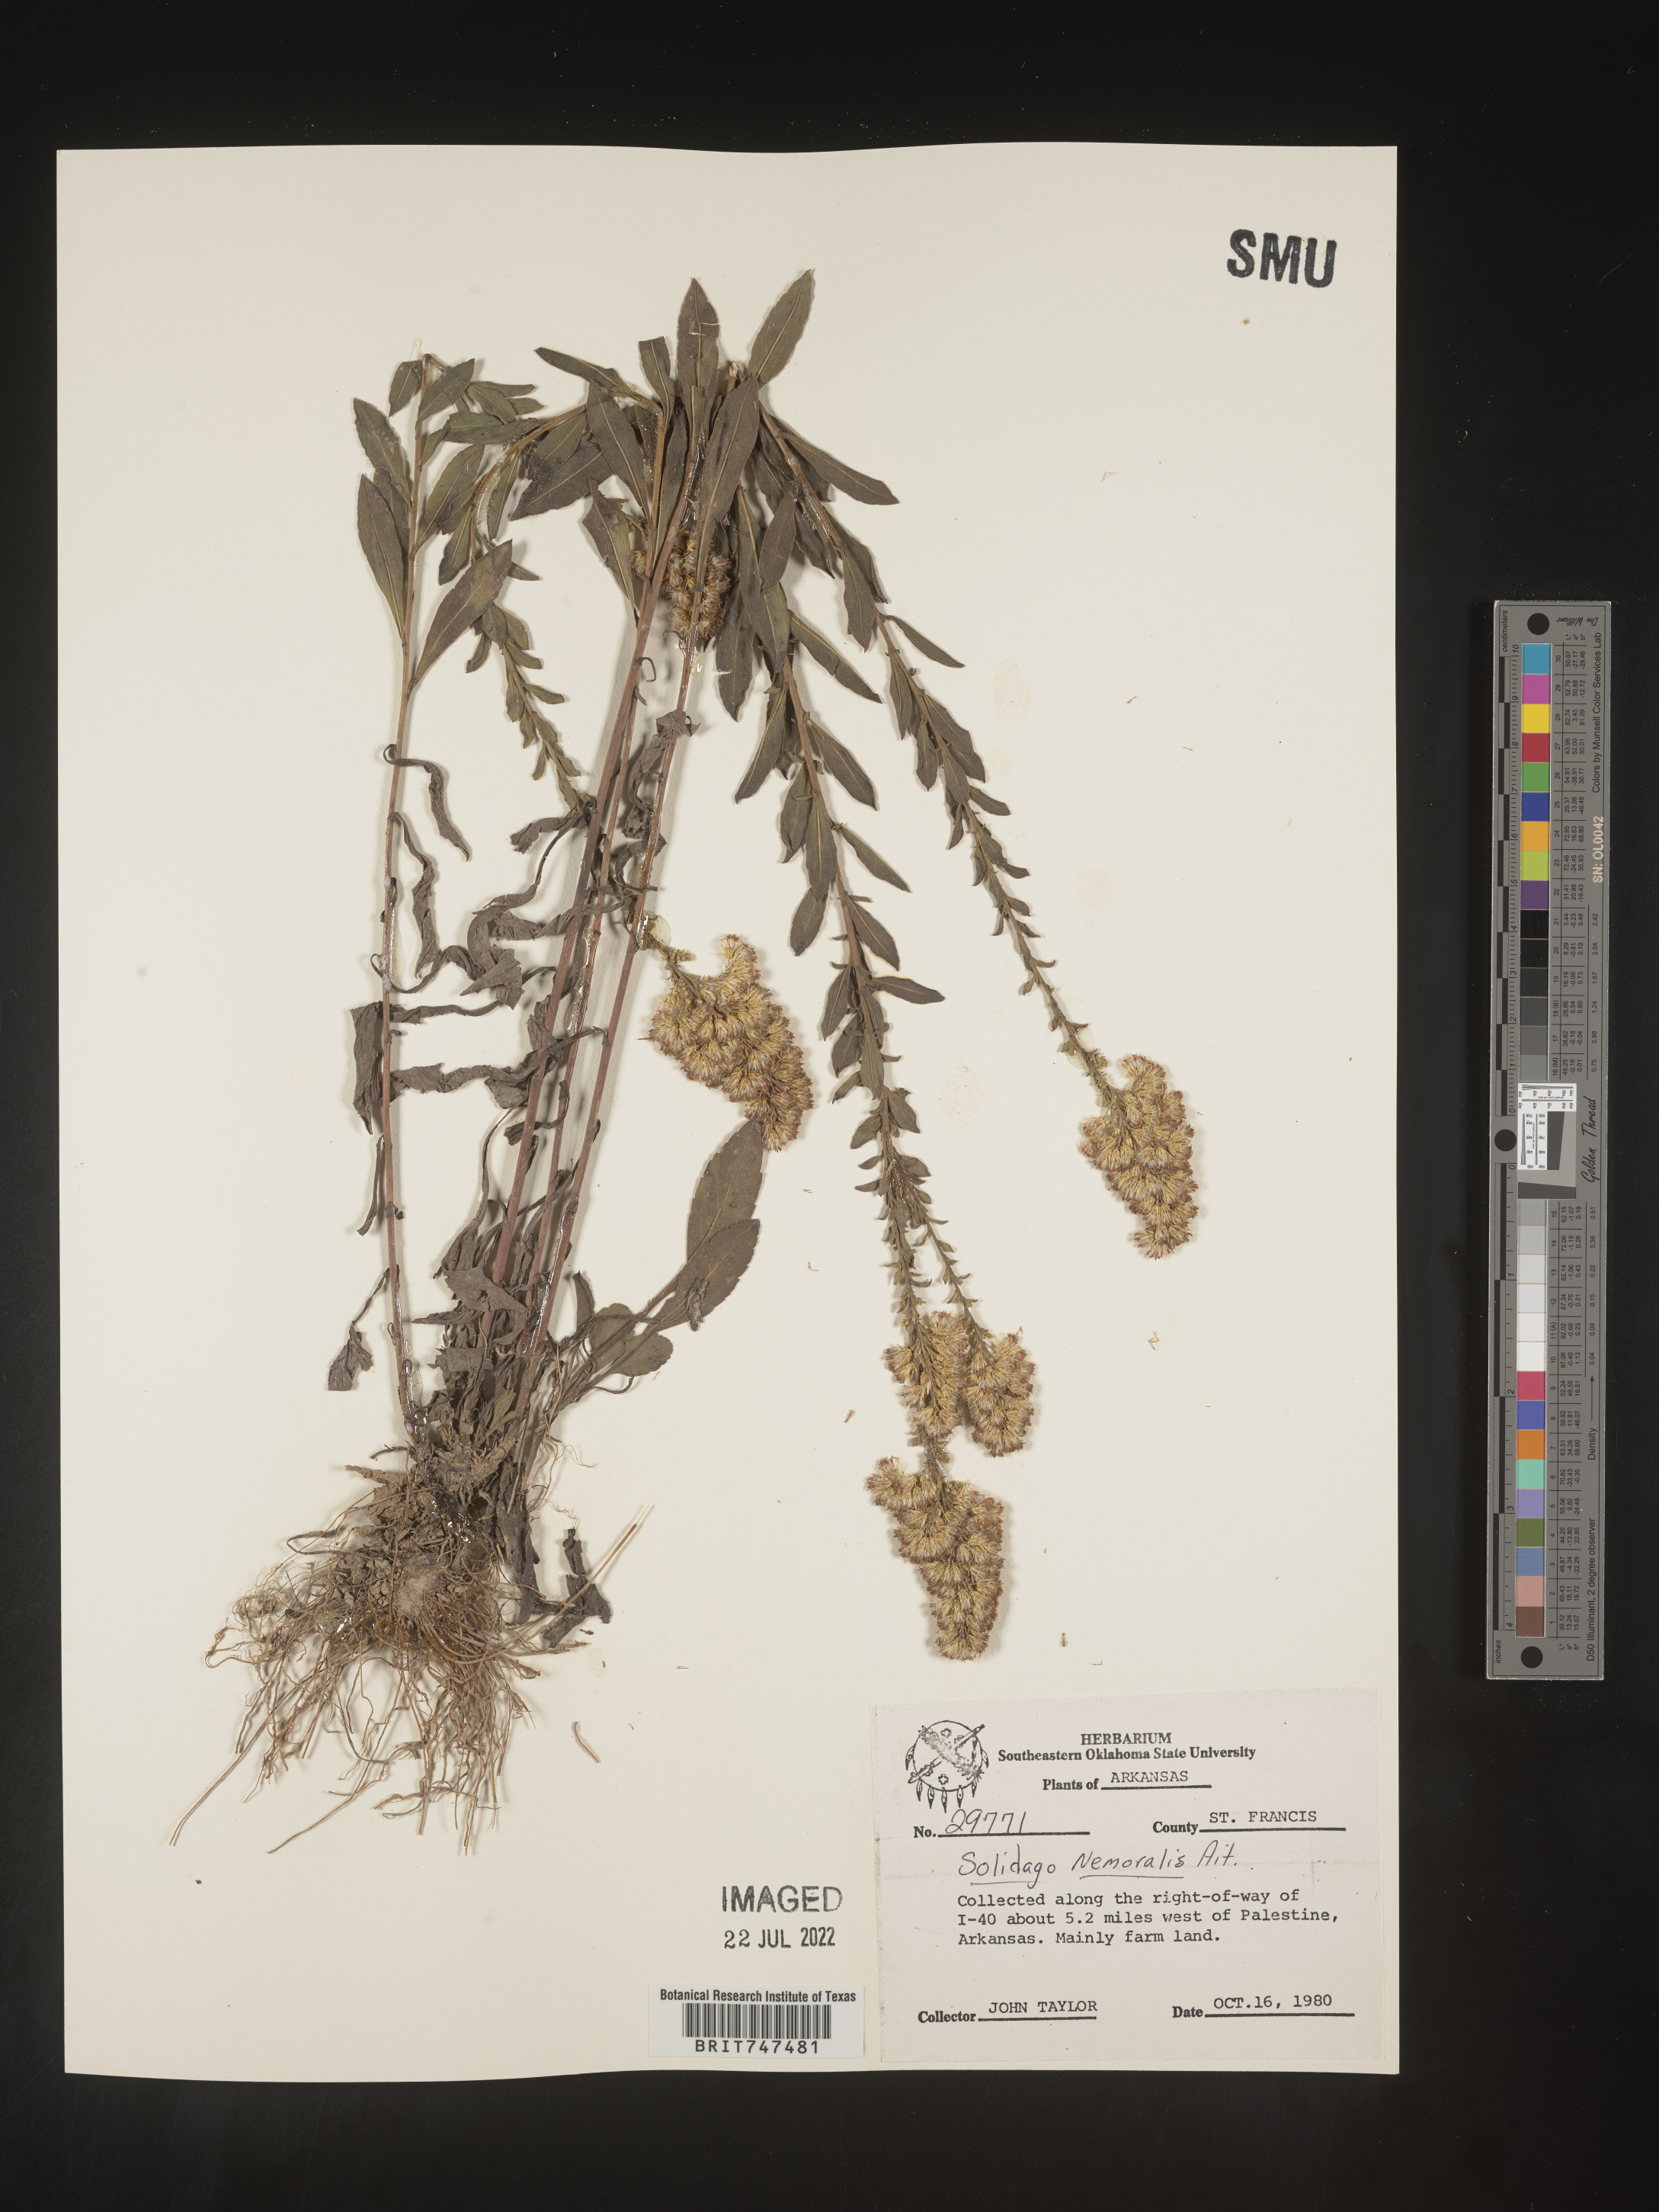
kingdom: Plantae
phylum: Tracheophyta
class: Magnoliopsida
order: Asterales
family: Asteraceae
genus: Solidago
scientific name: Solidago nemoralis
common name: Grey goldenrod
